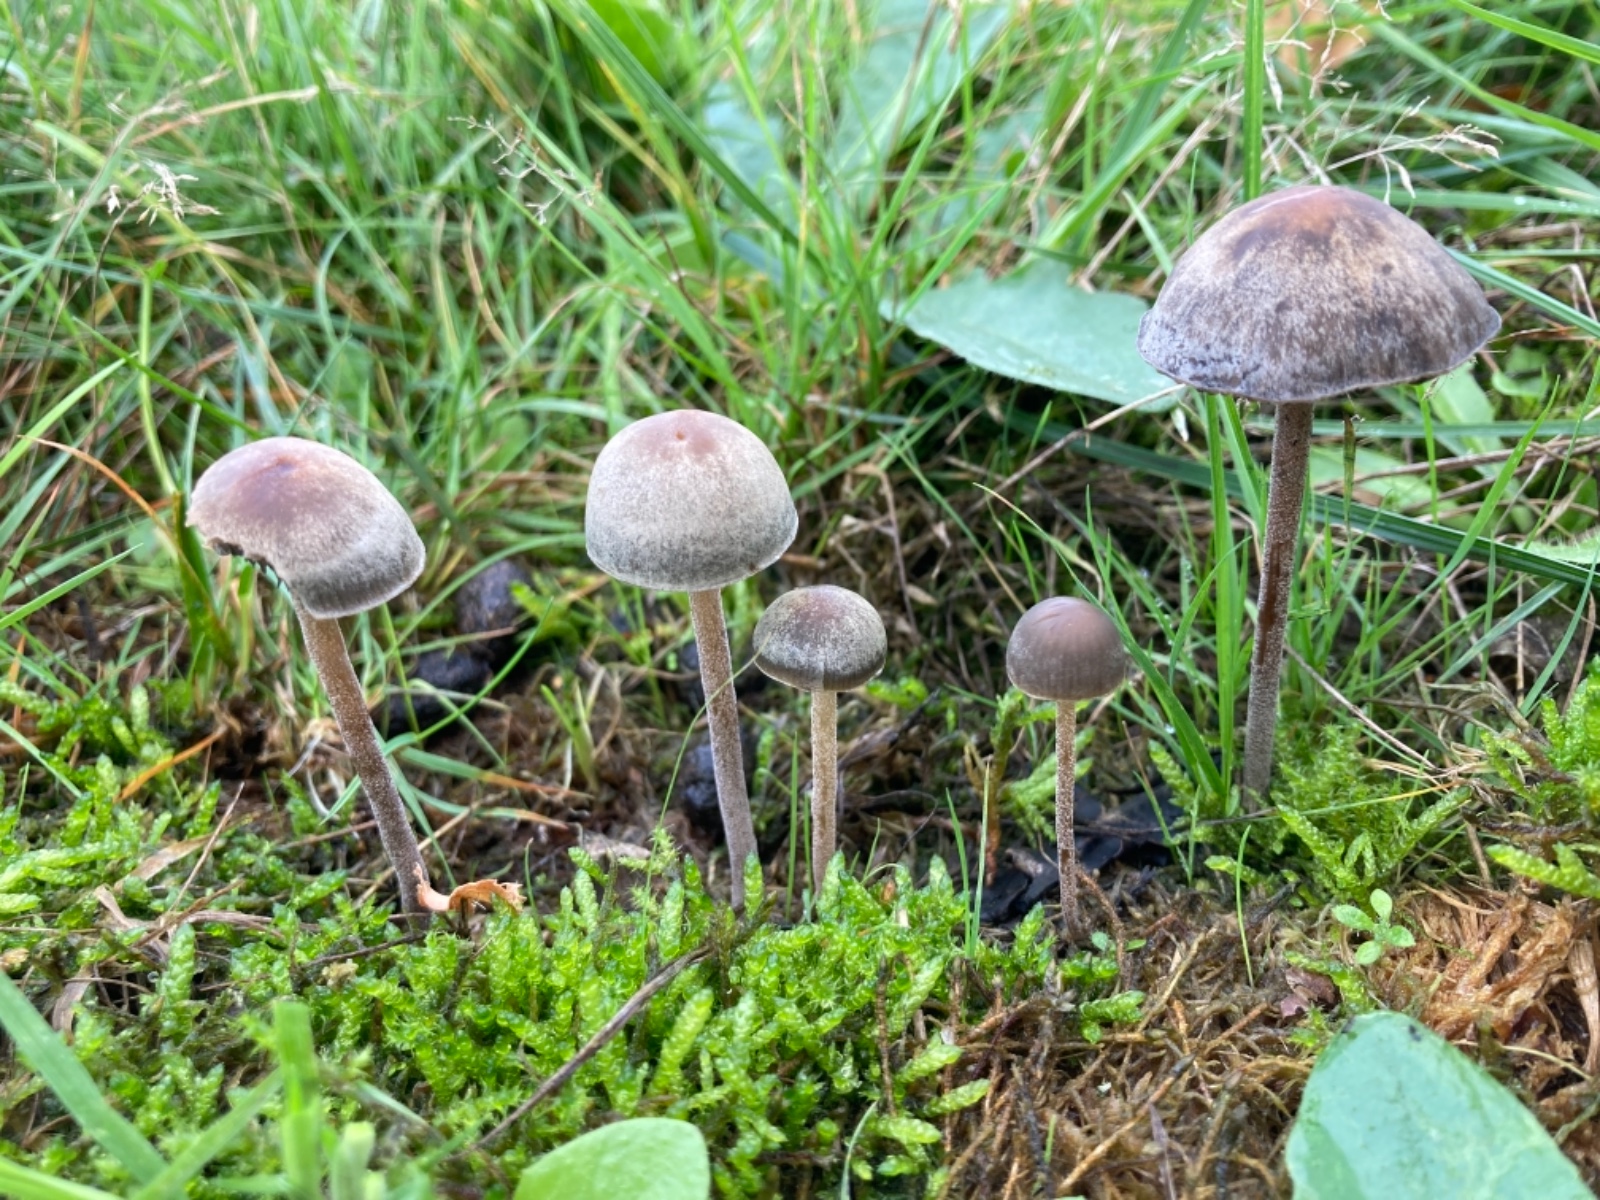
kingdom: Fungi
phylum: Basidiomycota
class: Agaricomycetes
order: Agaricales
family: Bolbitiaceae
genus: Panaeolus
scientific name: Panaeolus olivaceus
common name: lysstokket glanshat
